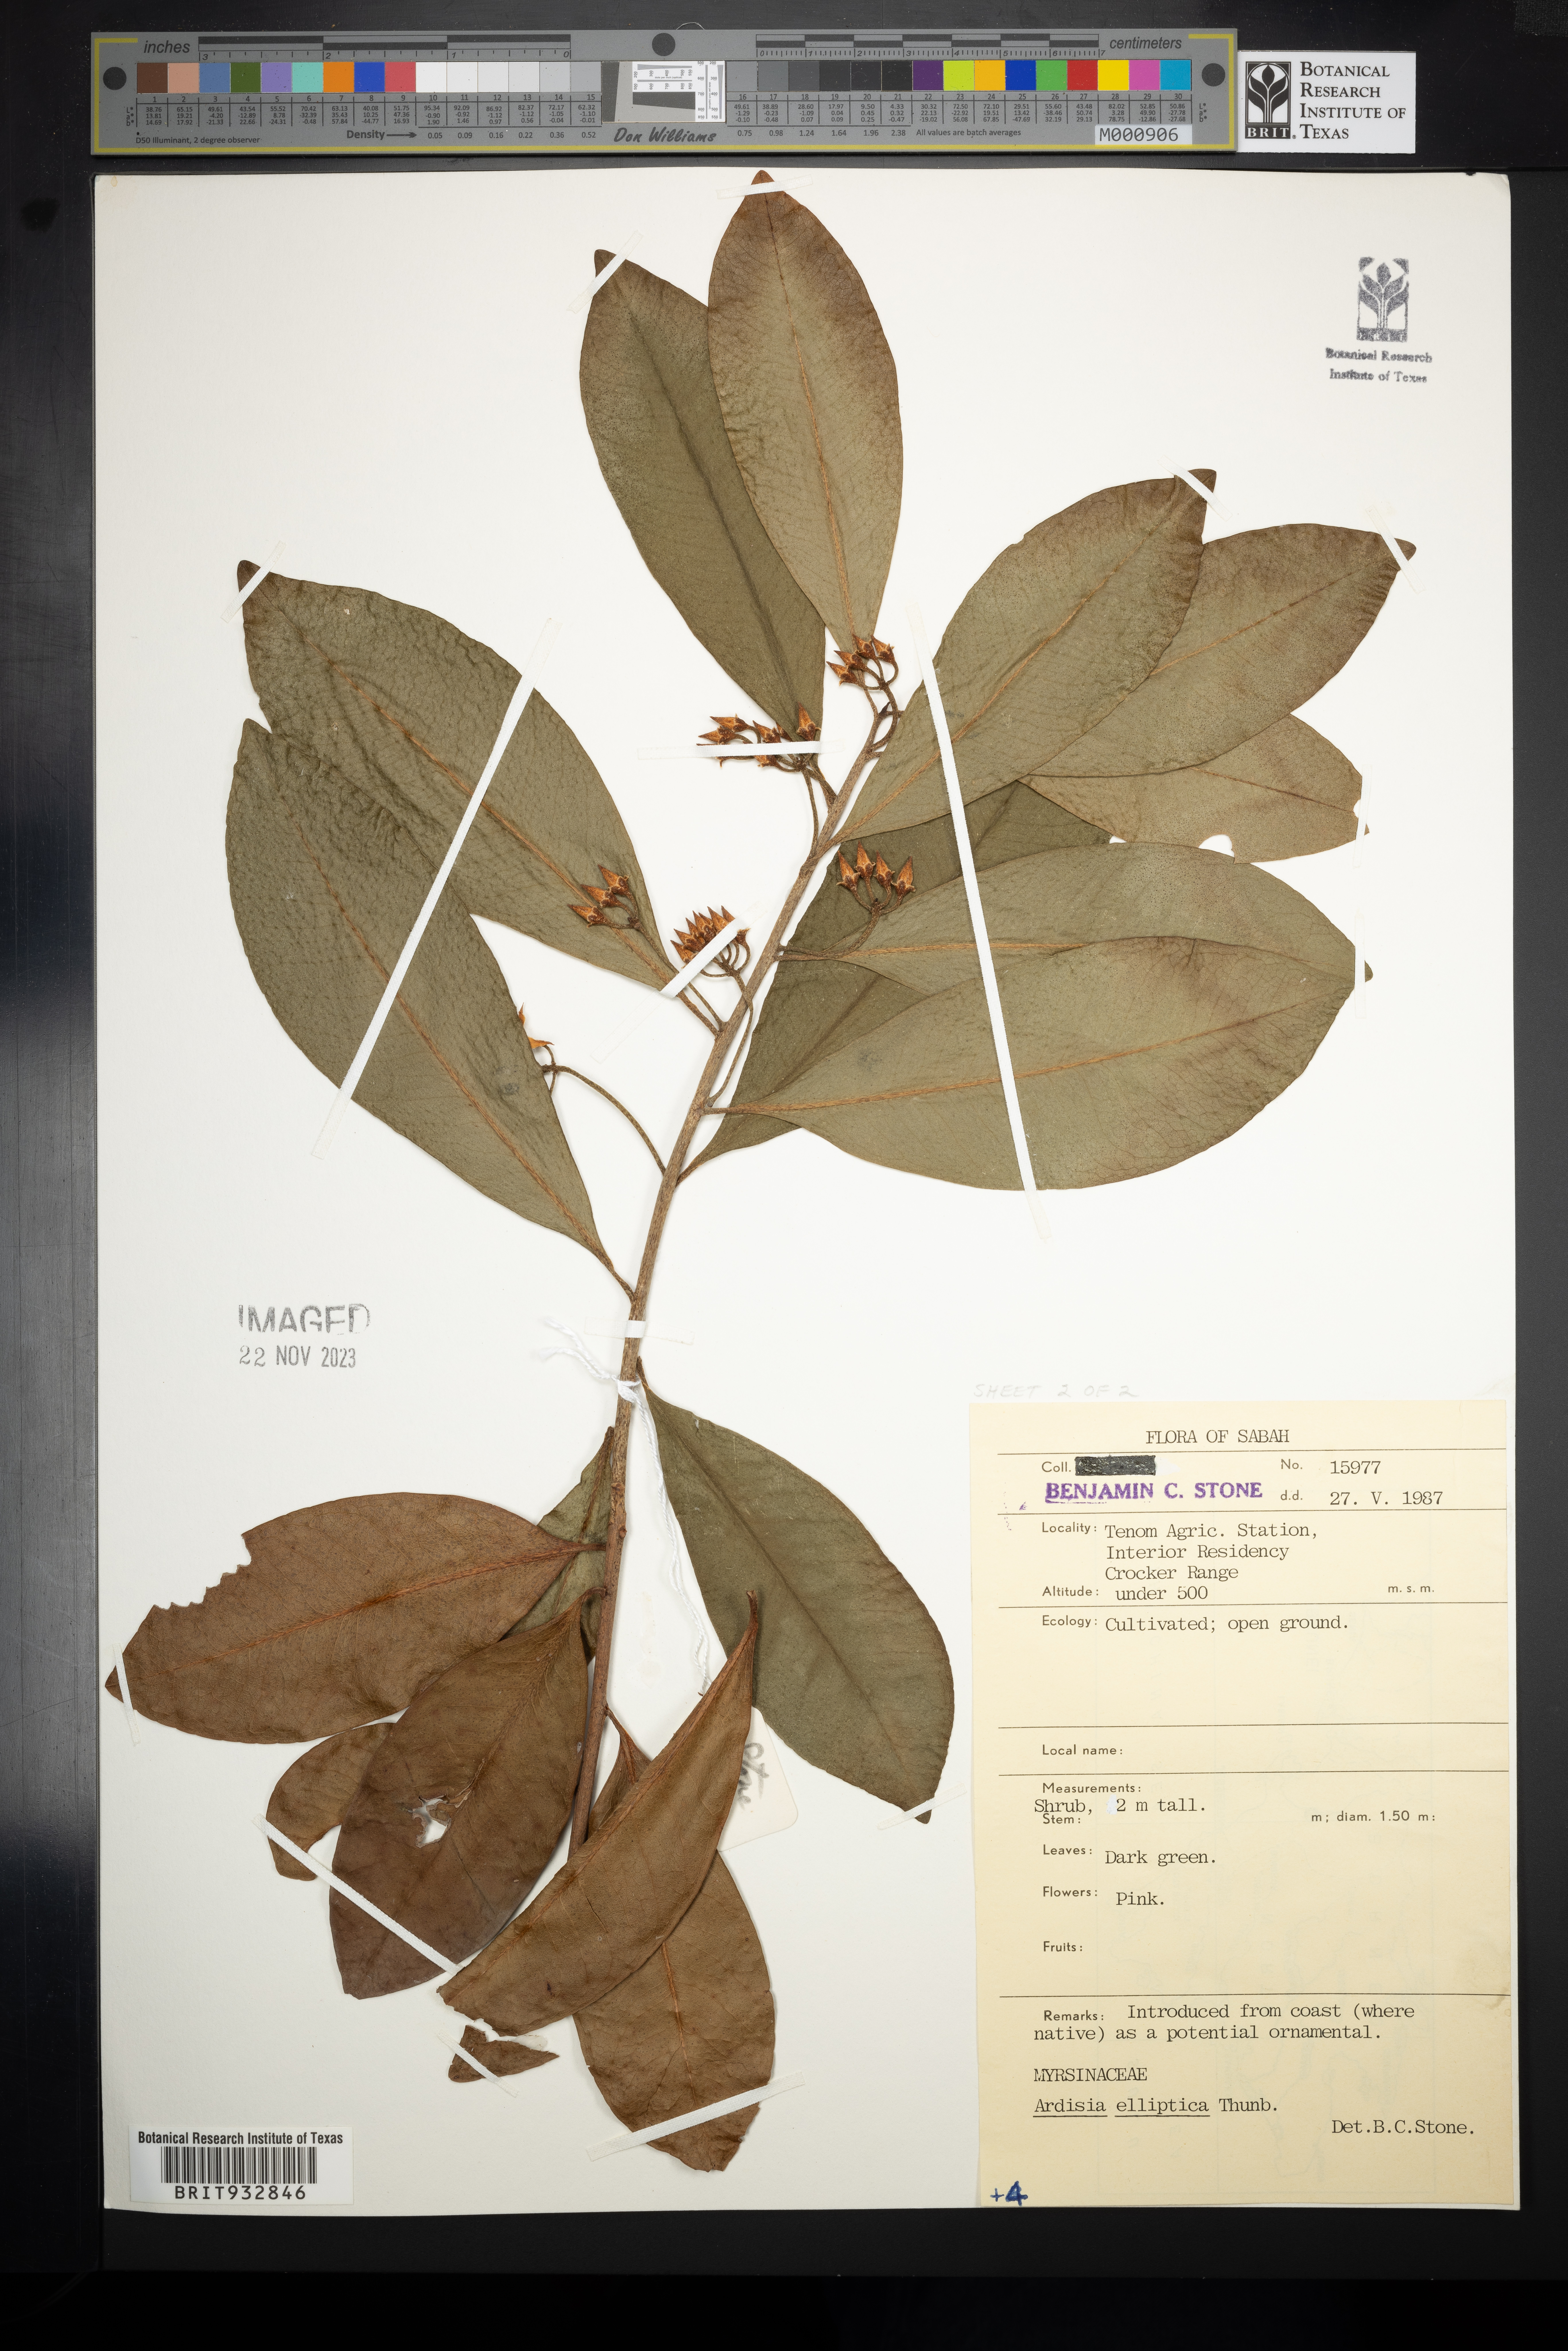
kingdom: Plantae
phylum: Tracheophyta
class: Magnoliopsida
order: Ericales
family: Primulaceae
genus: Ardisia
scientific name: Ardisia elliptica
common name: Shoebutton
